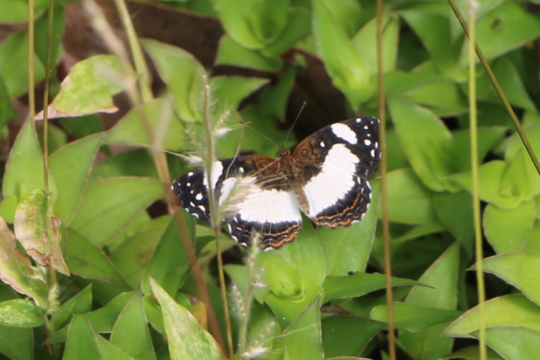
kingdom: Animalia
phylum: Arthropoda
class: Insecta
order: Lepidoptera
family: Nymphalidae
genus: Janatella
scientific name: Janatella leucodesma
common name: Whitened Crescent
